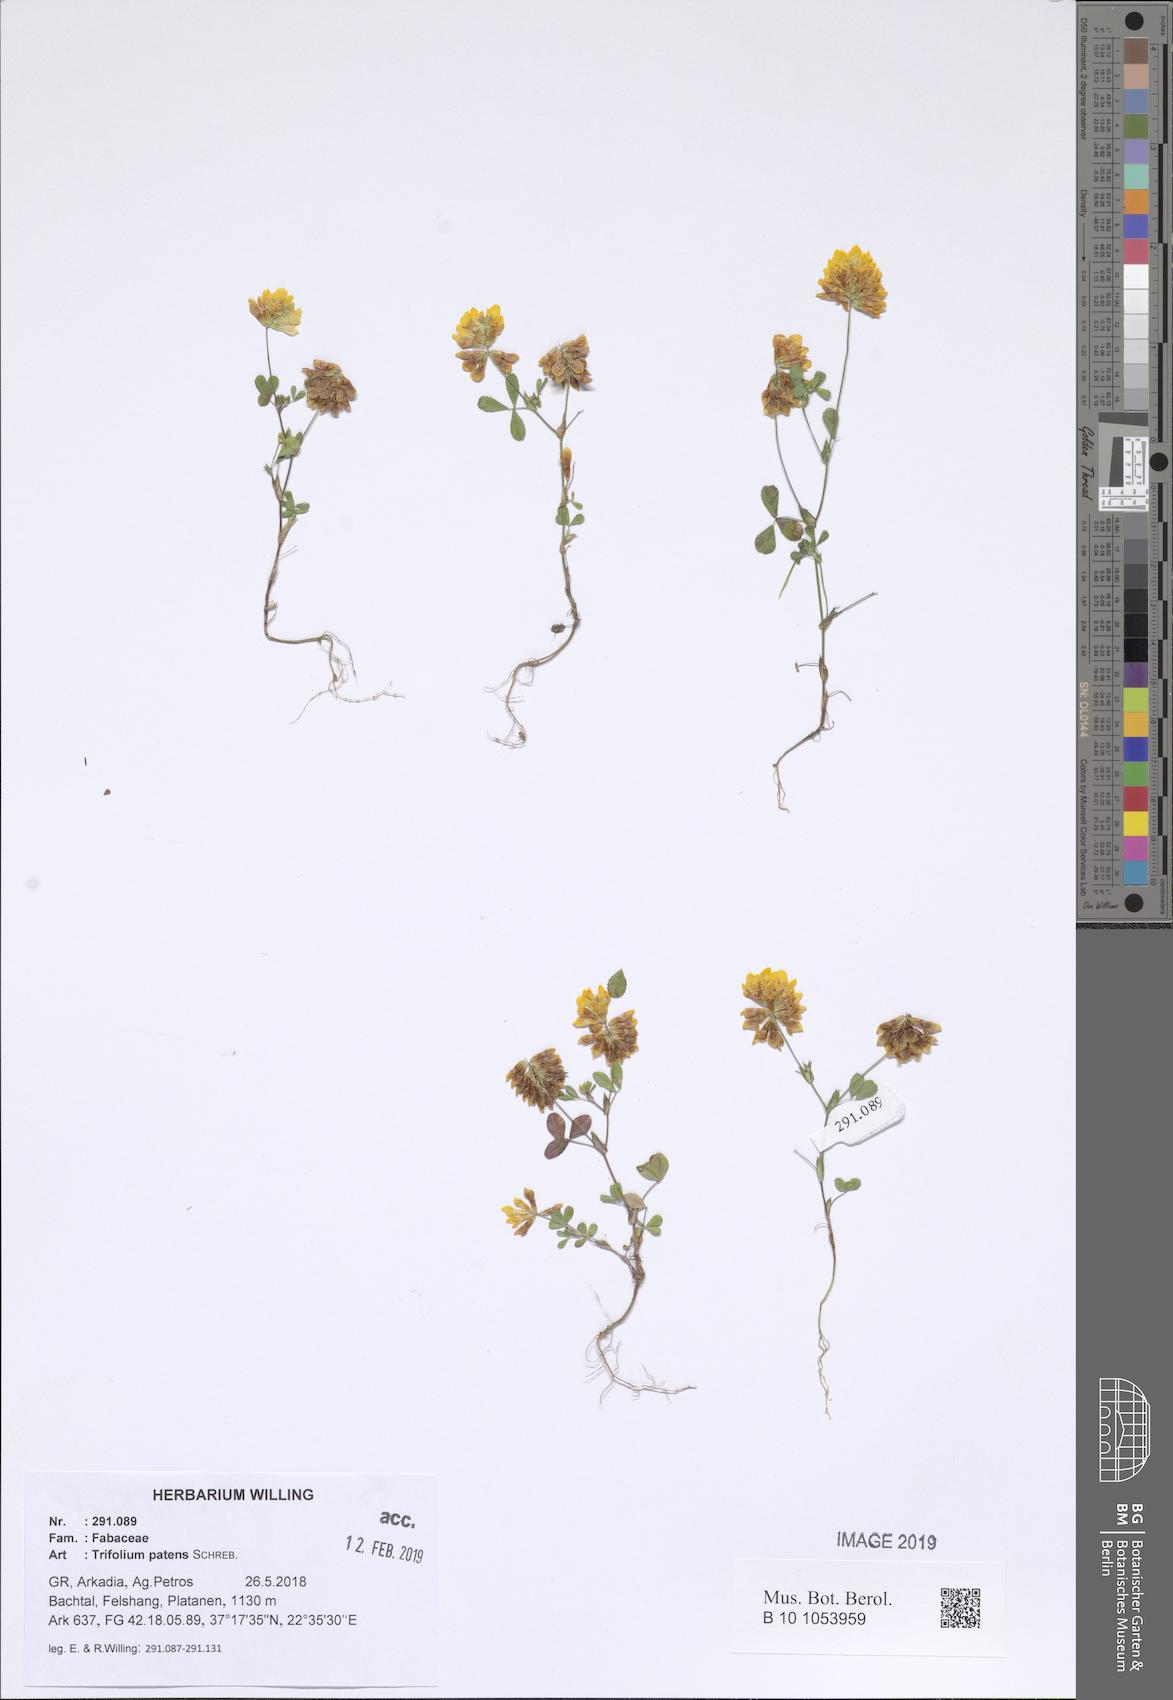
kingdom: Plantae
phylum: Tracheophyta
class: Magnoliopsida
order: Fabales
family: Fabaceae
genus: Trifolium
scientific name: Trifolium patens
